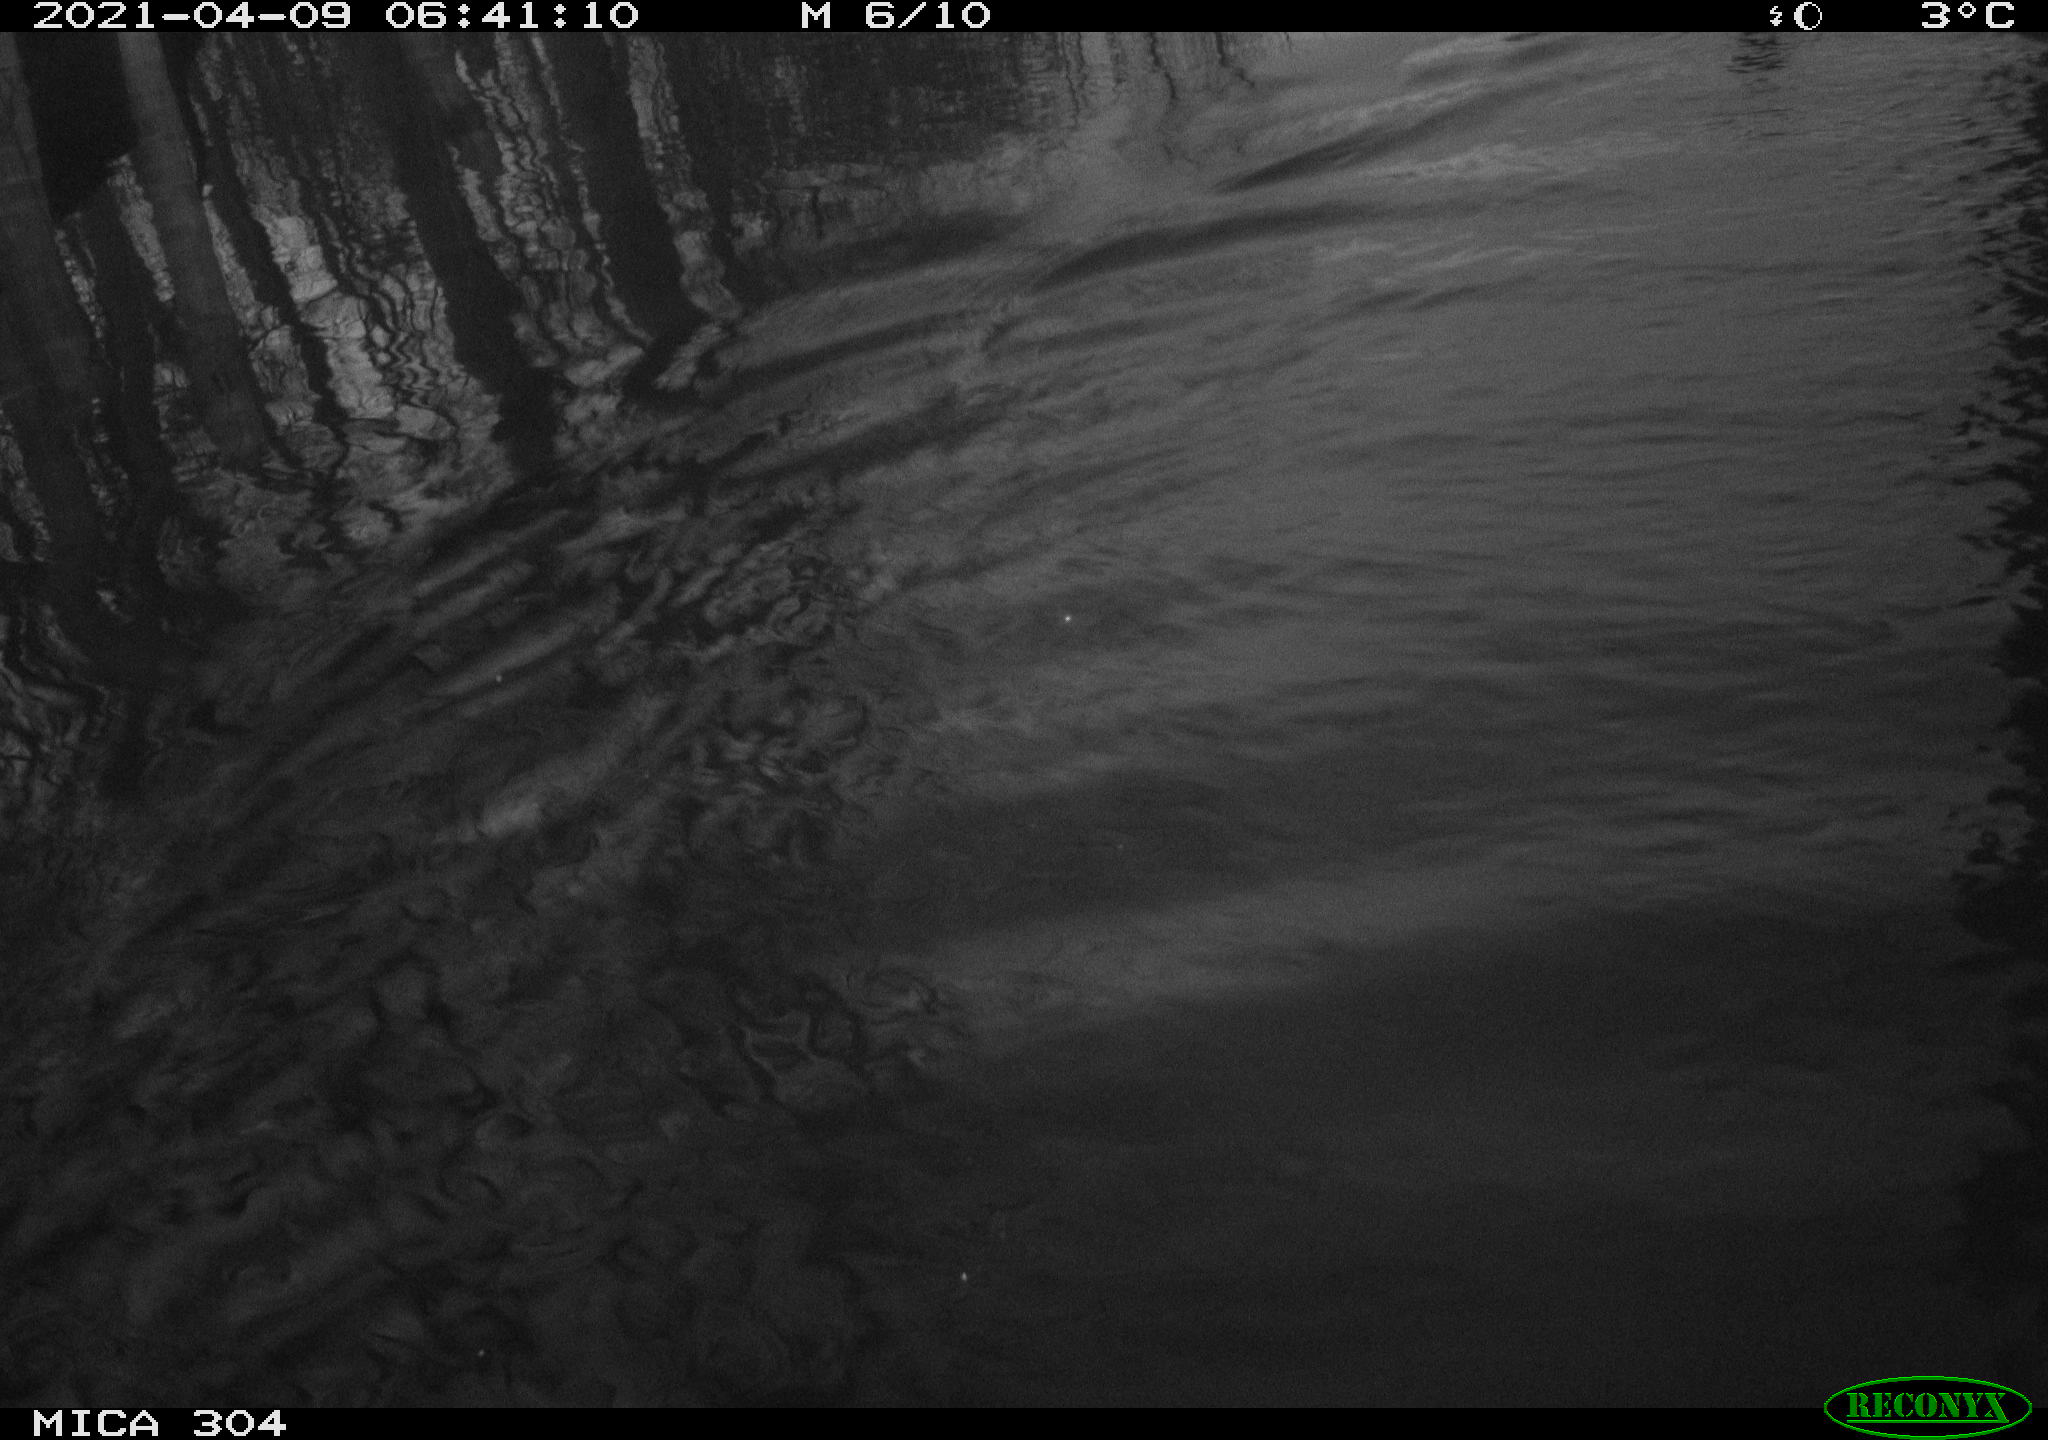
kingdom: Animalia
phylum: Chordata
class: Aves
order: Anseriformes
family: Anatidae
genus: Anas
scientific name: Anas
